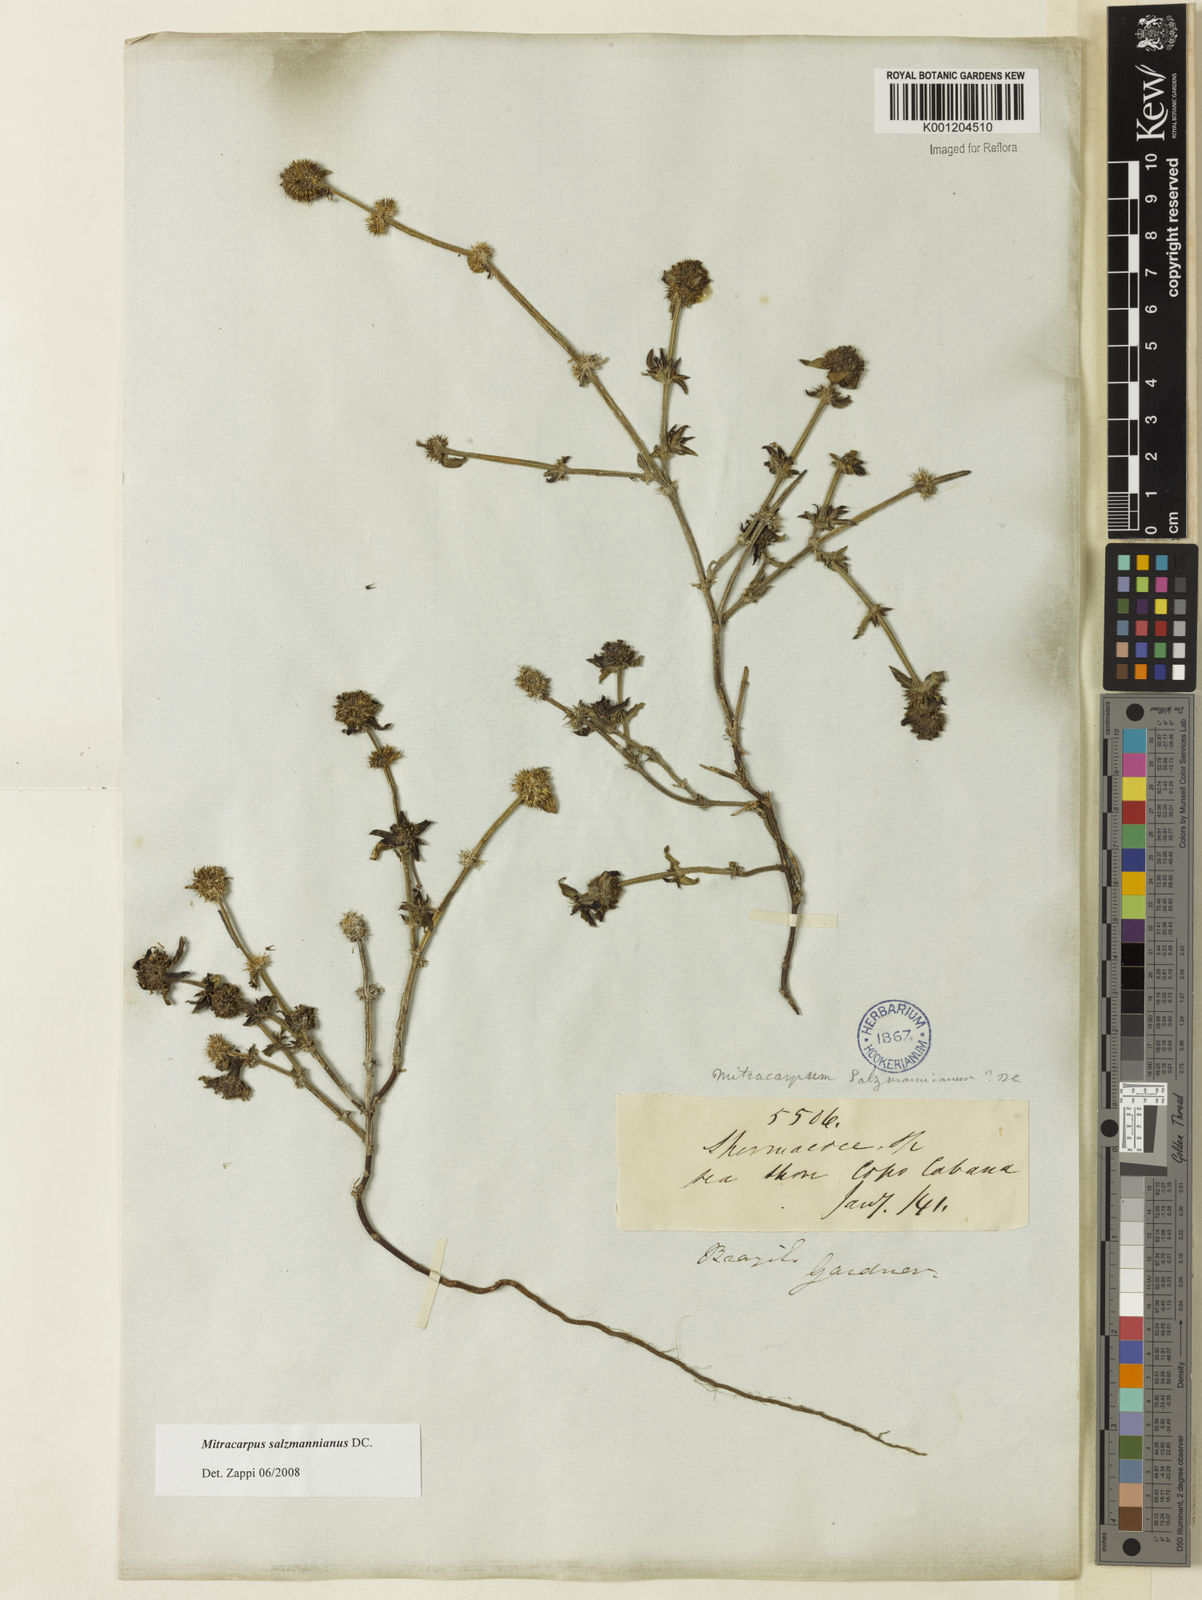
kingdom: Plantae
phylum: Tracheophyta
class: Magnoliopsida
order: Gentianales
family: Rubiaceae
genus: Mitracarpus
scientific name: Mitracarpus salzmannianus
